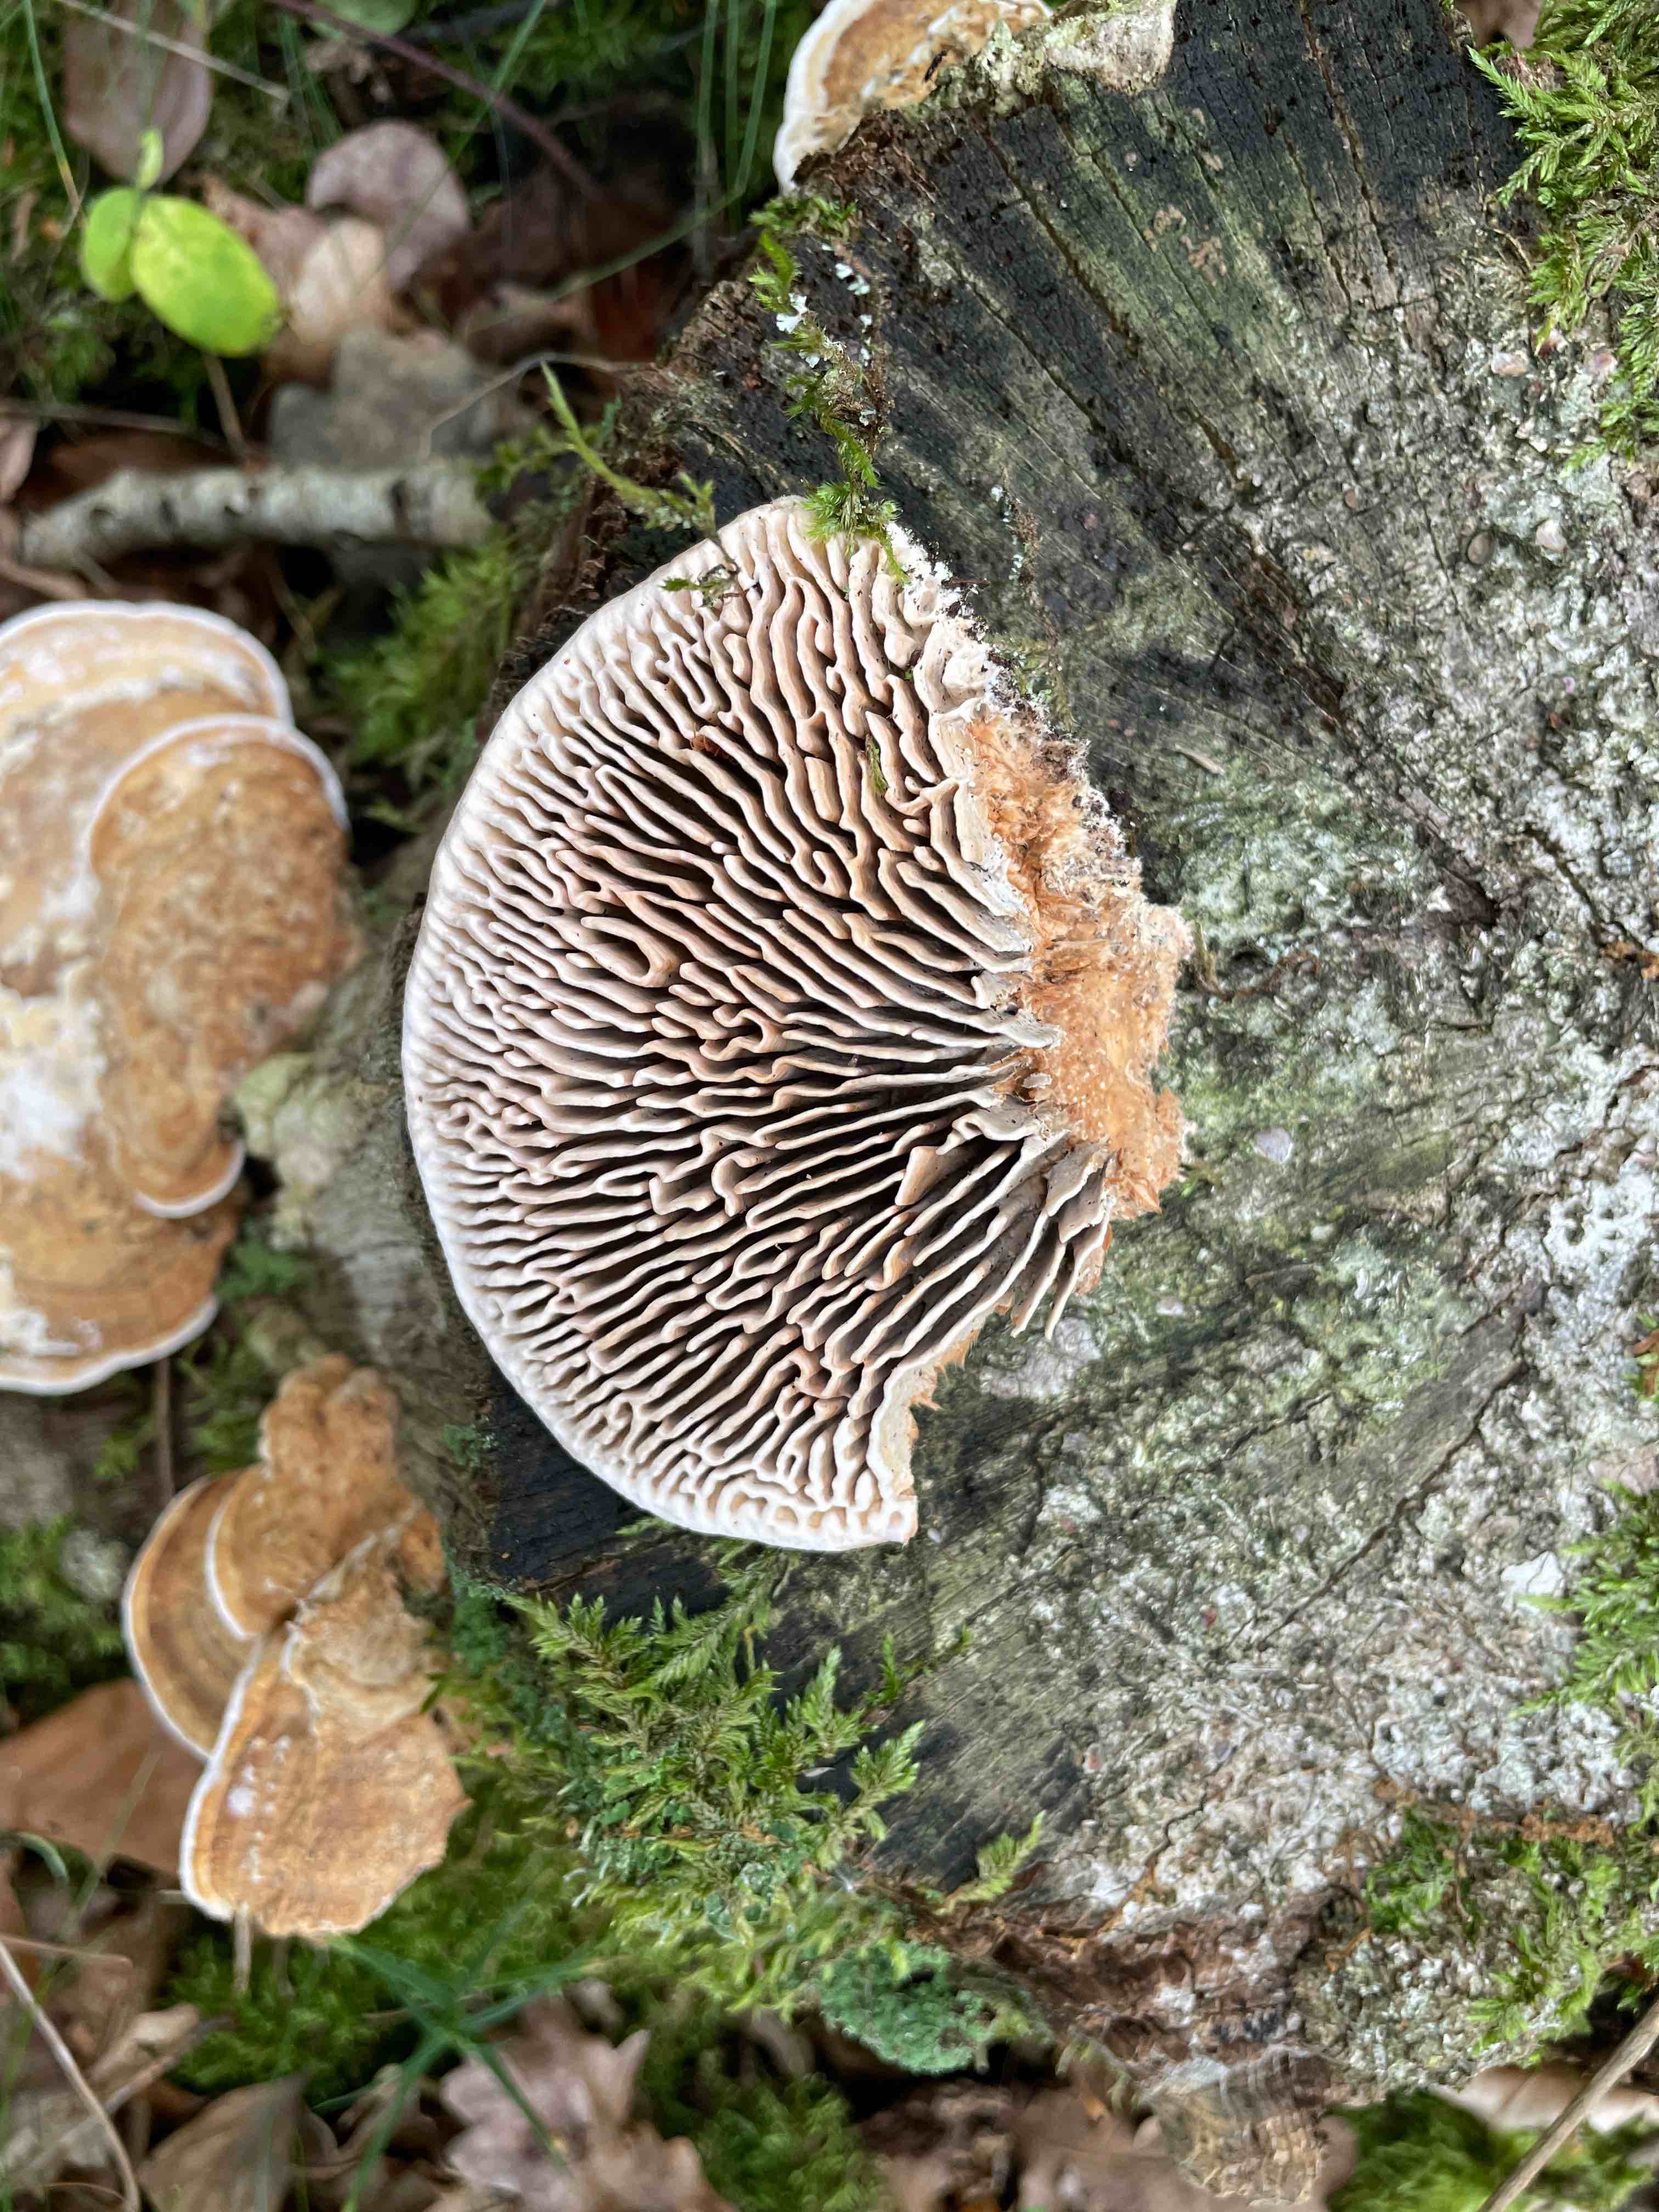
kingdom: Fungi
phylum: Basidiomycota
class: Agaricomycetes
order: Polyporales
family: Fomitopsidaceae
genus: Daedalea
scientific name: Daedalea quercina
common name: ege-labyrintsvamp
